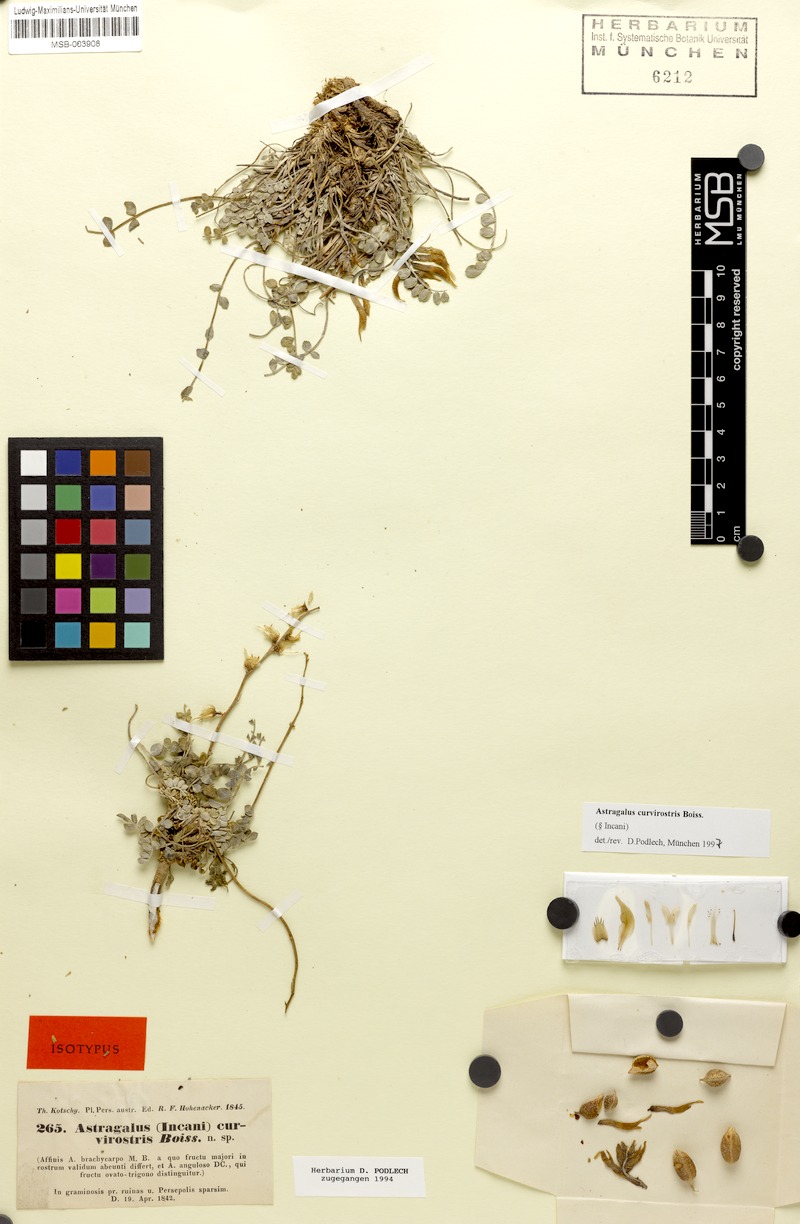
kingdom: Plantae
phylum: Tracheophyta
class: Magnoliopsida
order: Fabales
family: Fabaceae
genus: Astragalus
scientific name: Astragalus curvirostris
